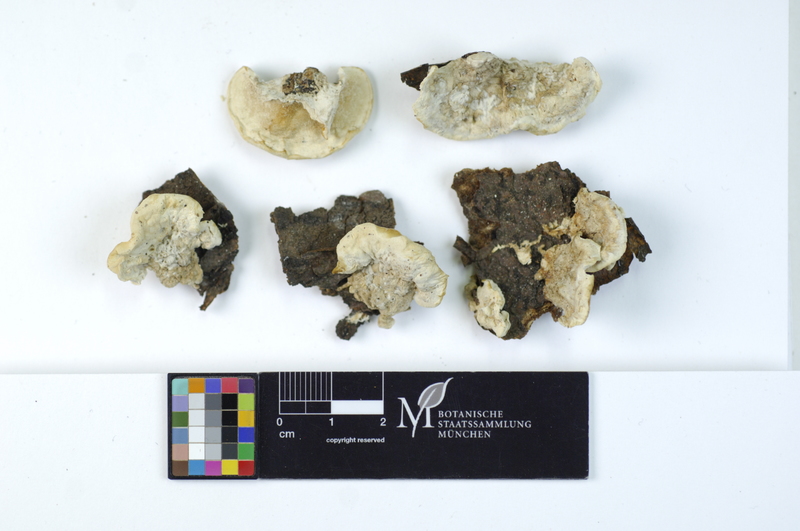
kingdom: Plantae
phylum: Tracheophyta
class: Magnoliopsida
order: Fagales
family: Fagaceae
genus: Fagus
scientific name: Fagus sylvatica
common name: Beech
